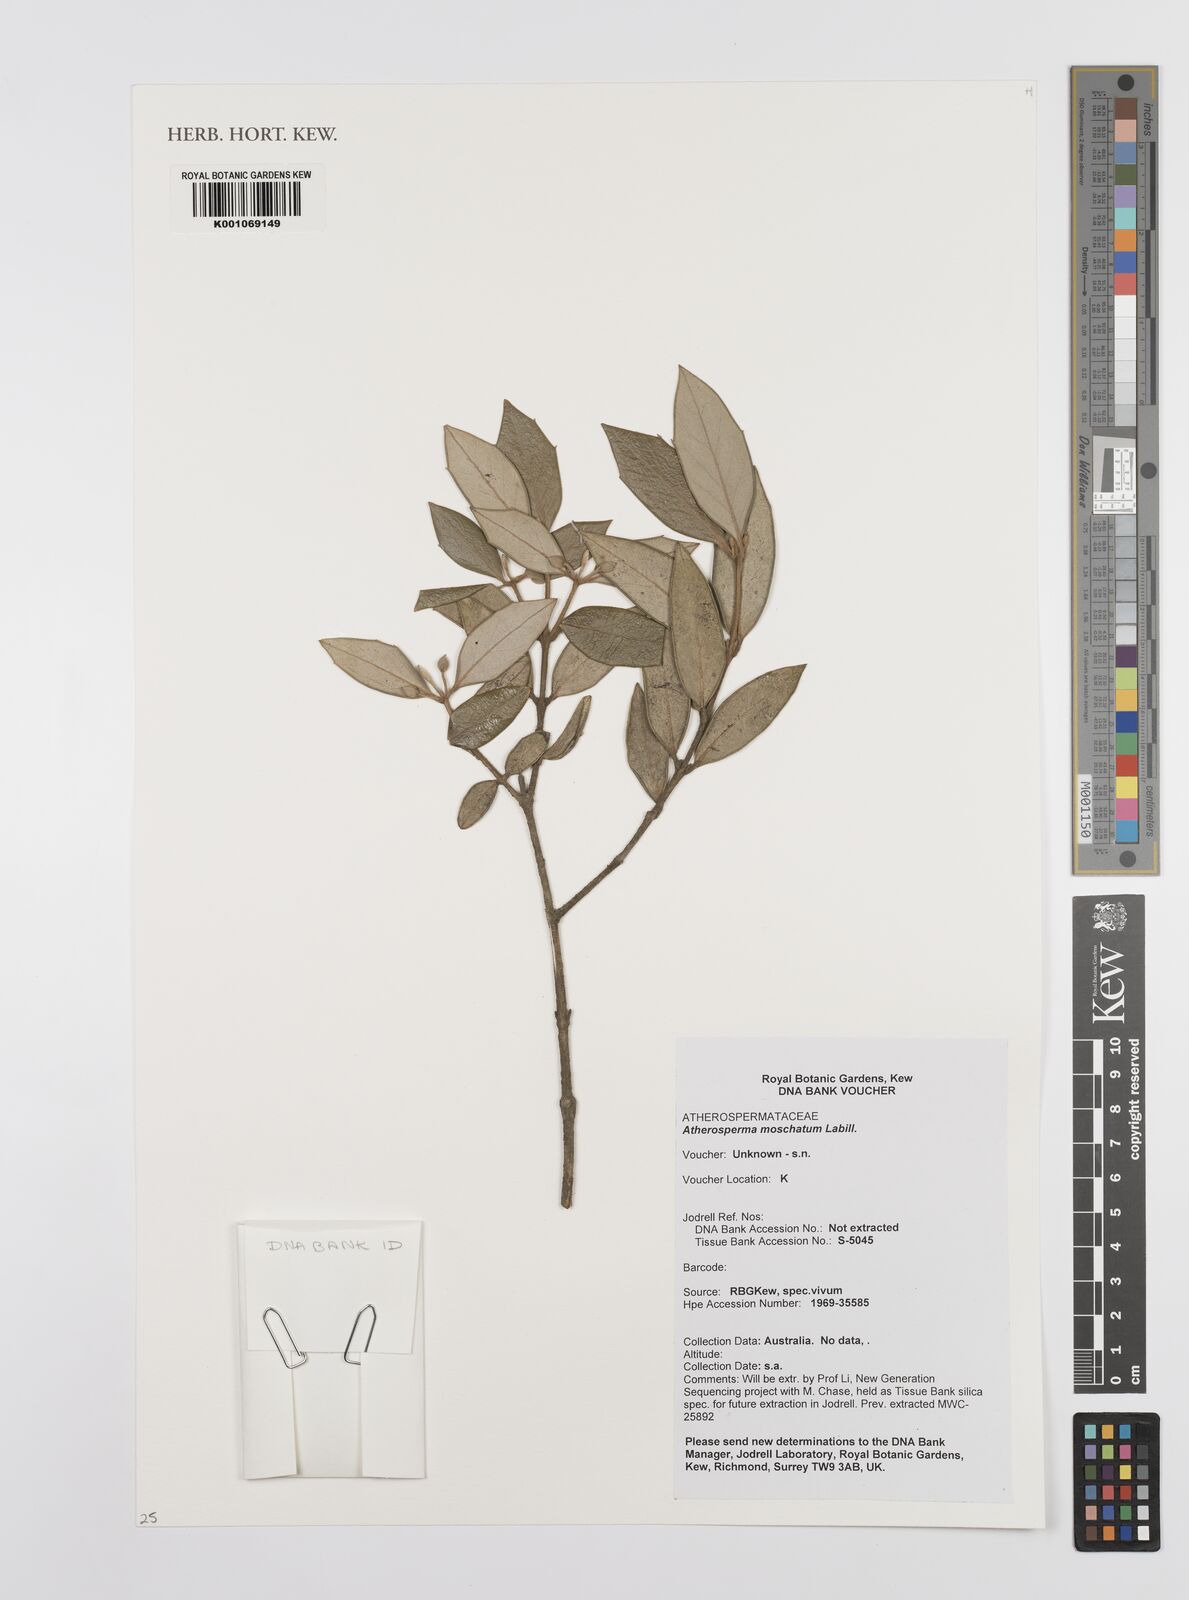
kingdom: Plantae
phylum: Tracheophyta
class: Magnoliopsida
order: Laurales
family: Atherospermataceae
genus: Atherosperma
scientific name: Atherosperma moschatum
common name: Tasmanian-sassafras
